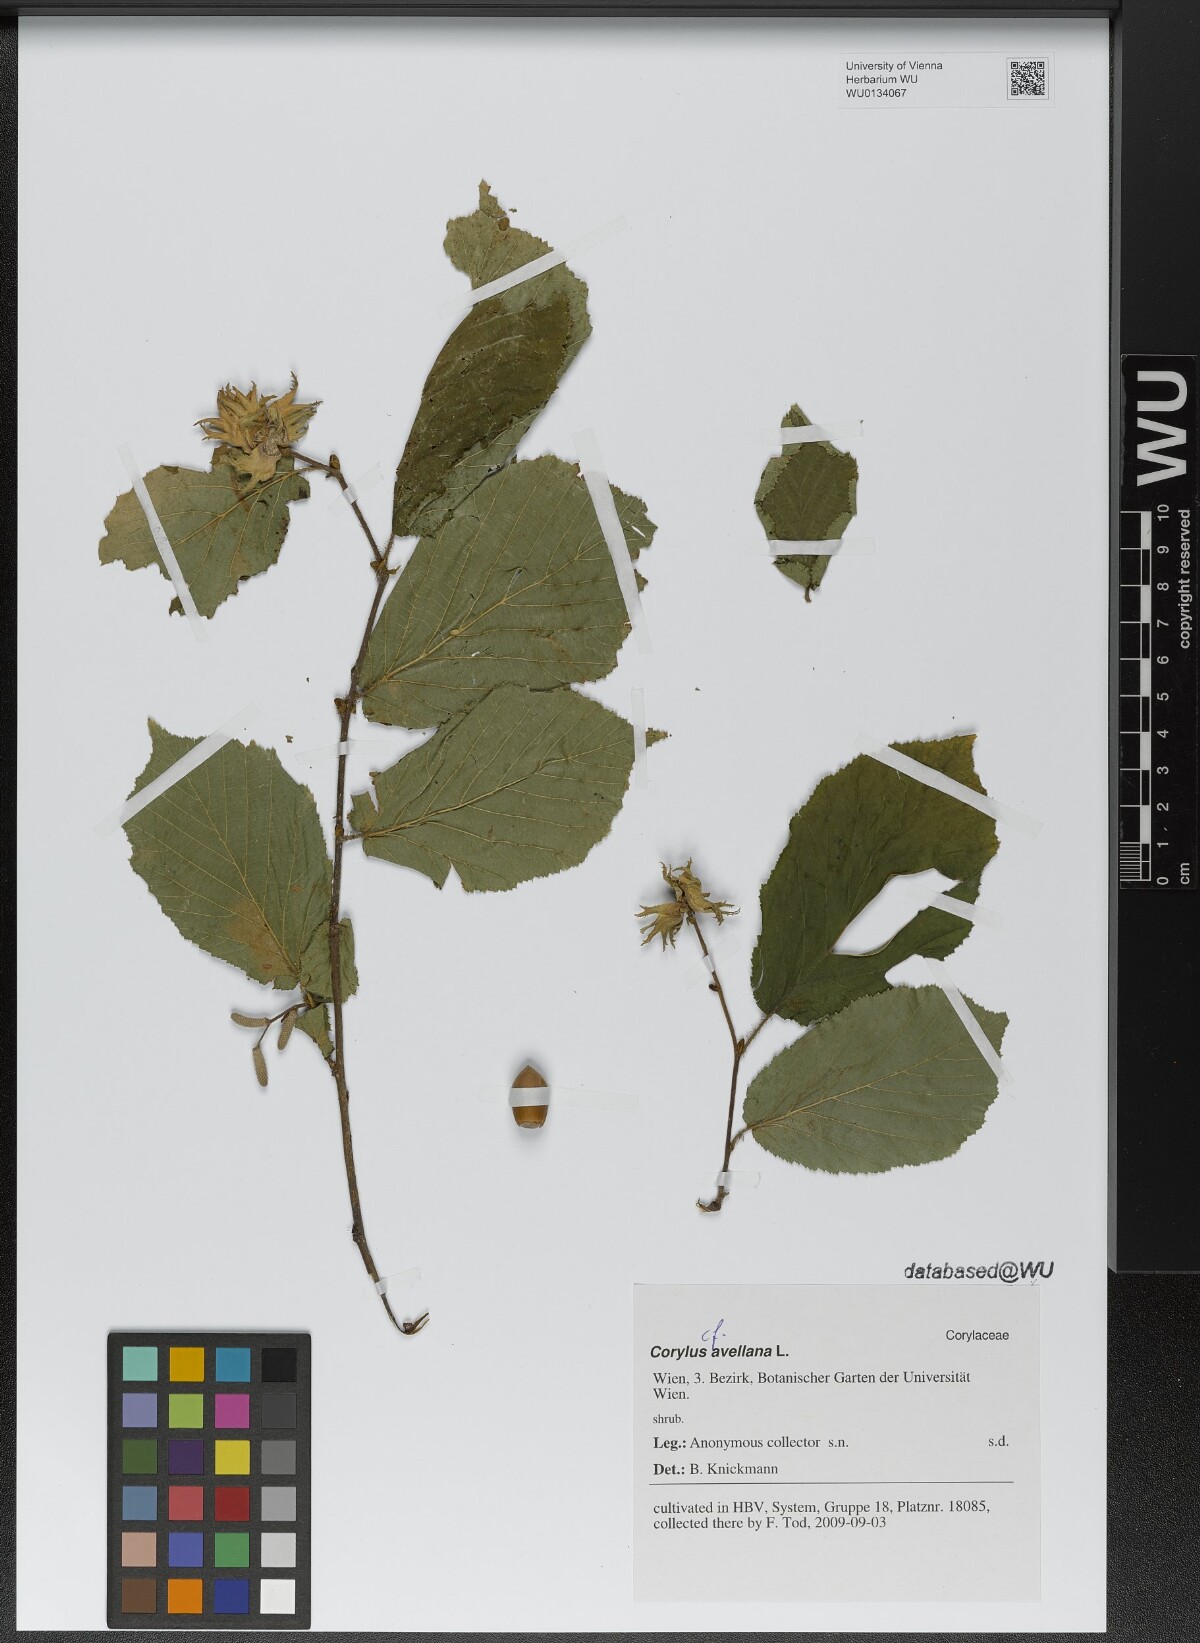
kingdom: Plantae
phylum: Tracheophyta
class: Magnoliopsida
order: Fagales
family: Betulaceae
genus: Corylus
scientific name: Corylus avellana
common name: European hazel
